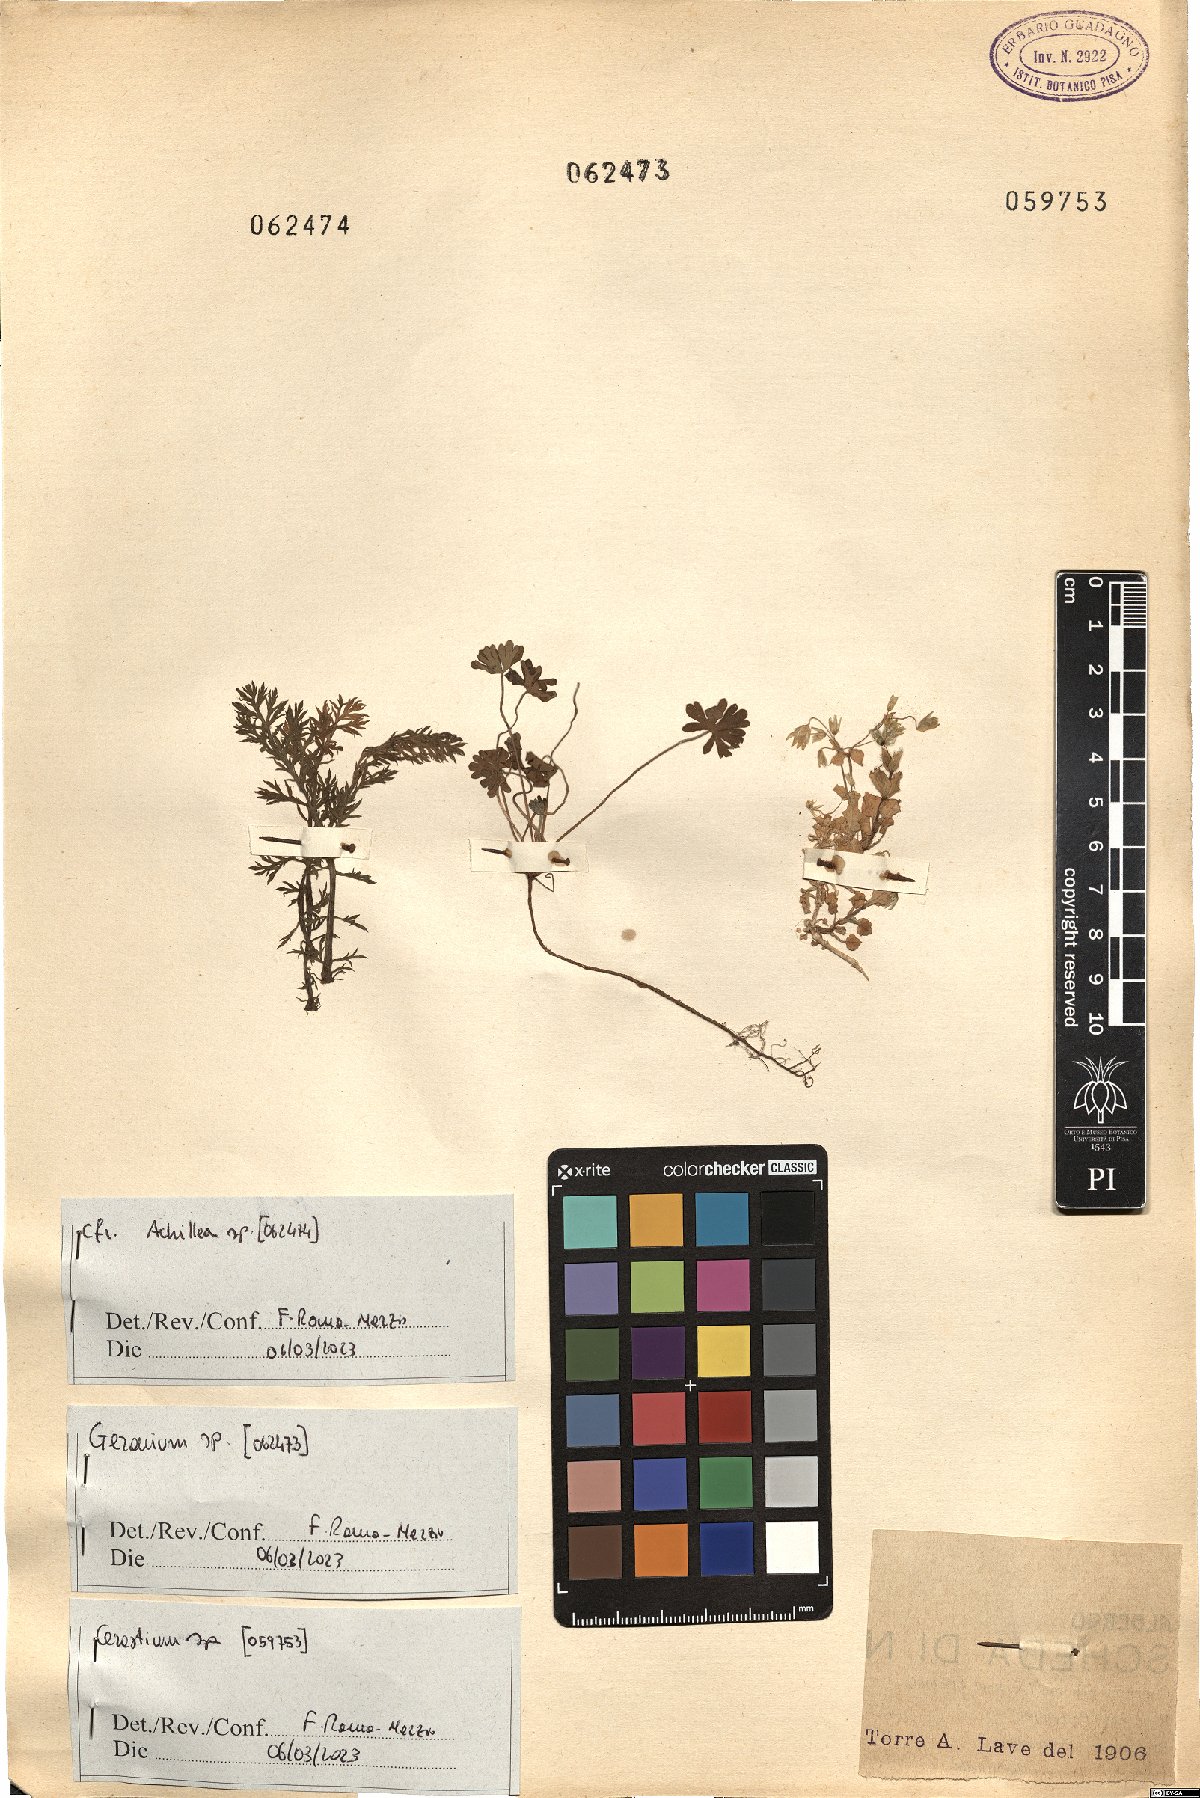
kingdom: Plantae
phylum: Tracheophyta
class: Magnoliopsida
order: Asterales
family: Asteraceae
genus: Achillea
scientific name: Achillea
